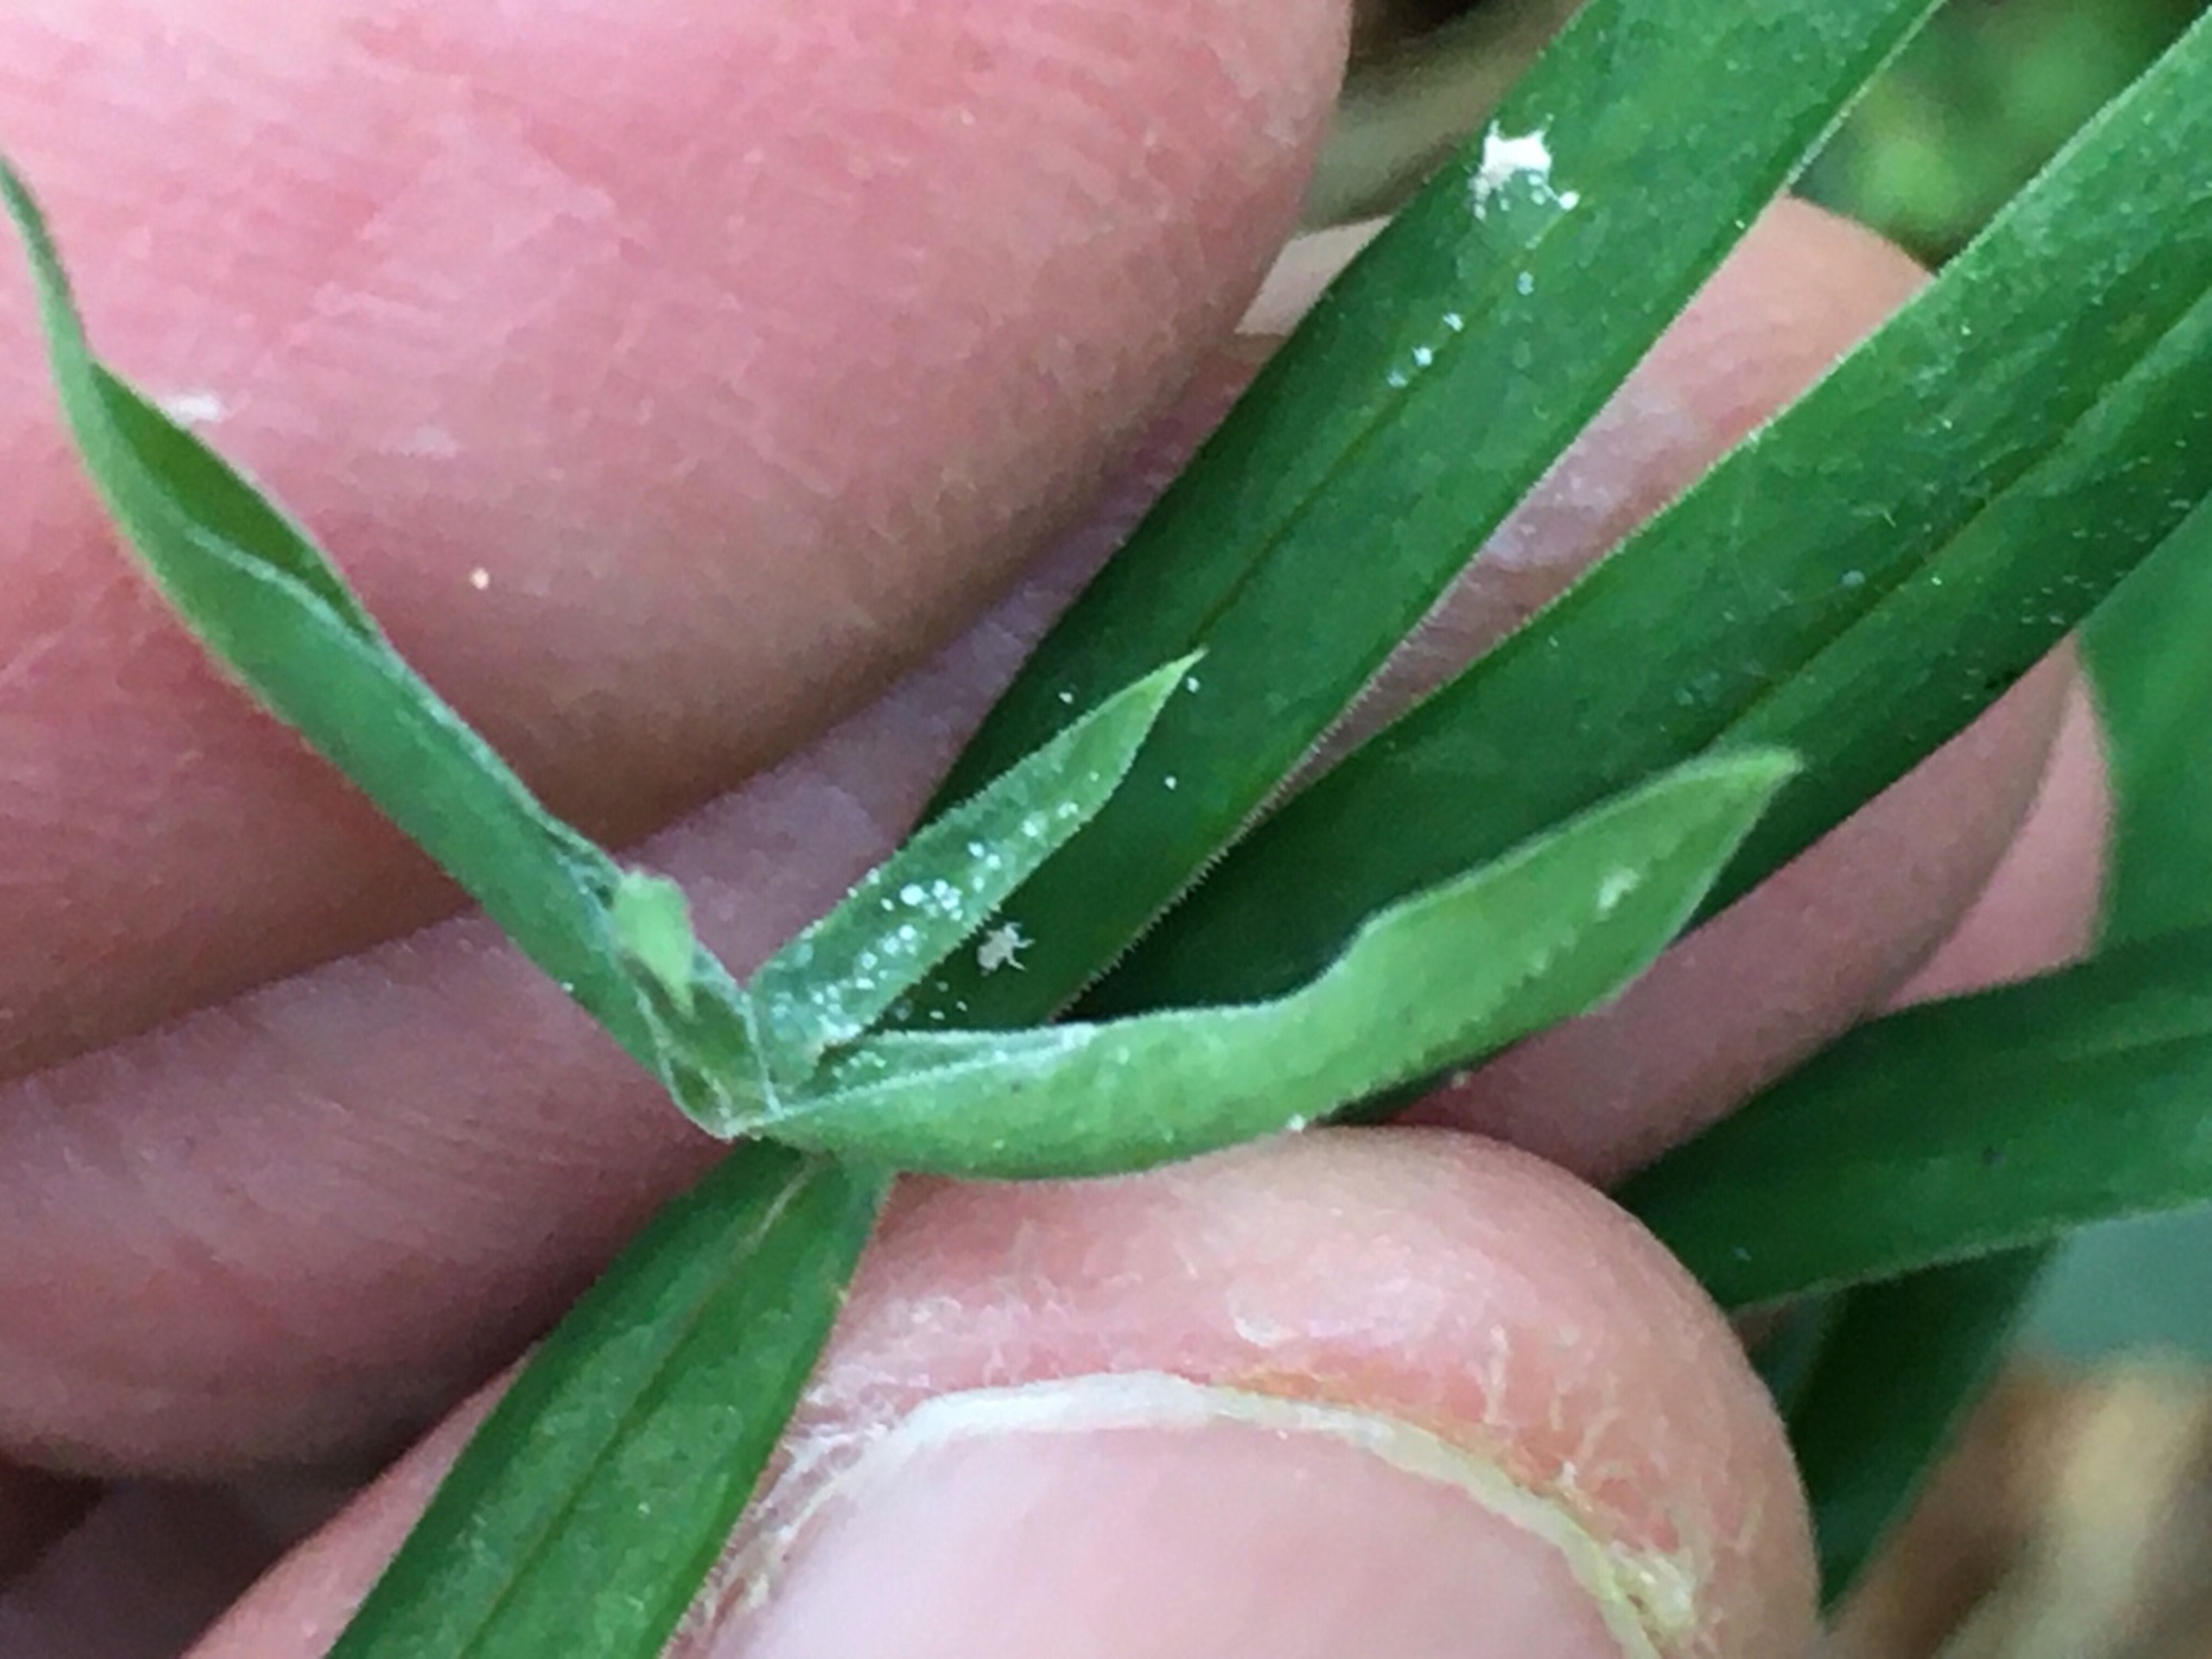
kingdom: Animalia
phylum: Arthropoda
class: Insecta
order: Hemiptera
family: Aphididae
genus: Brachycolus
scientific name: Brachycolus stellariae
